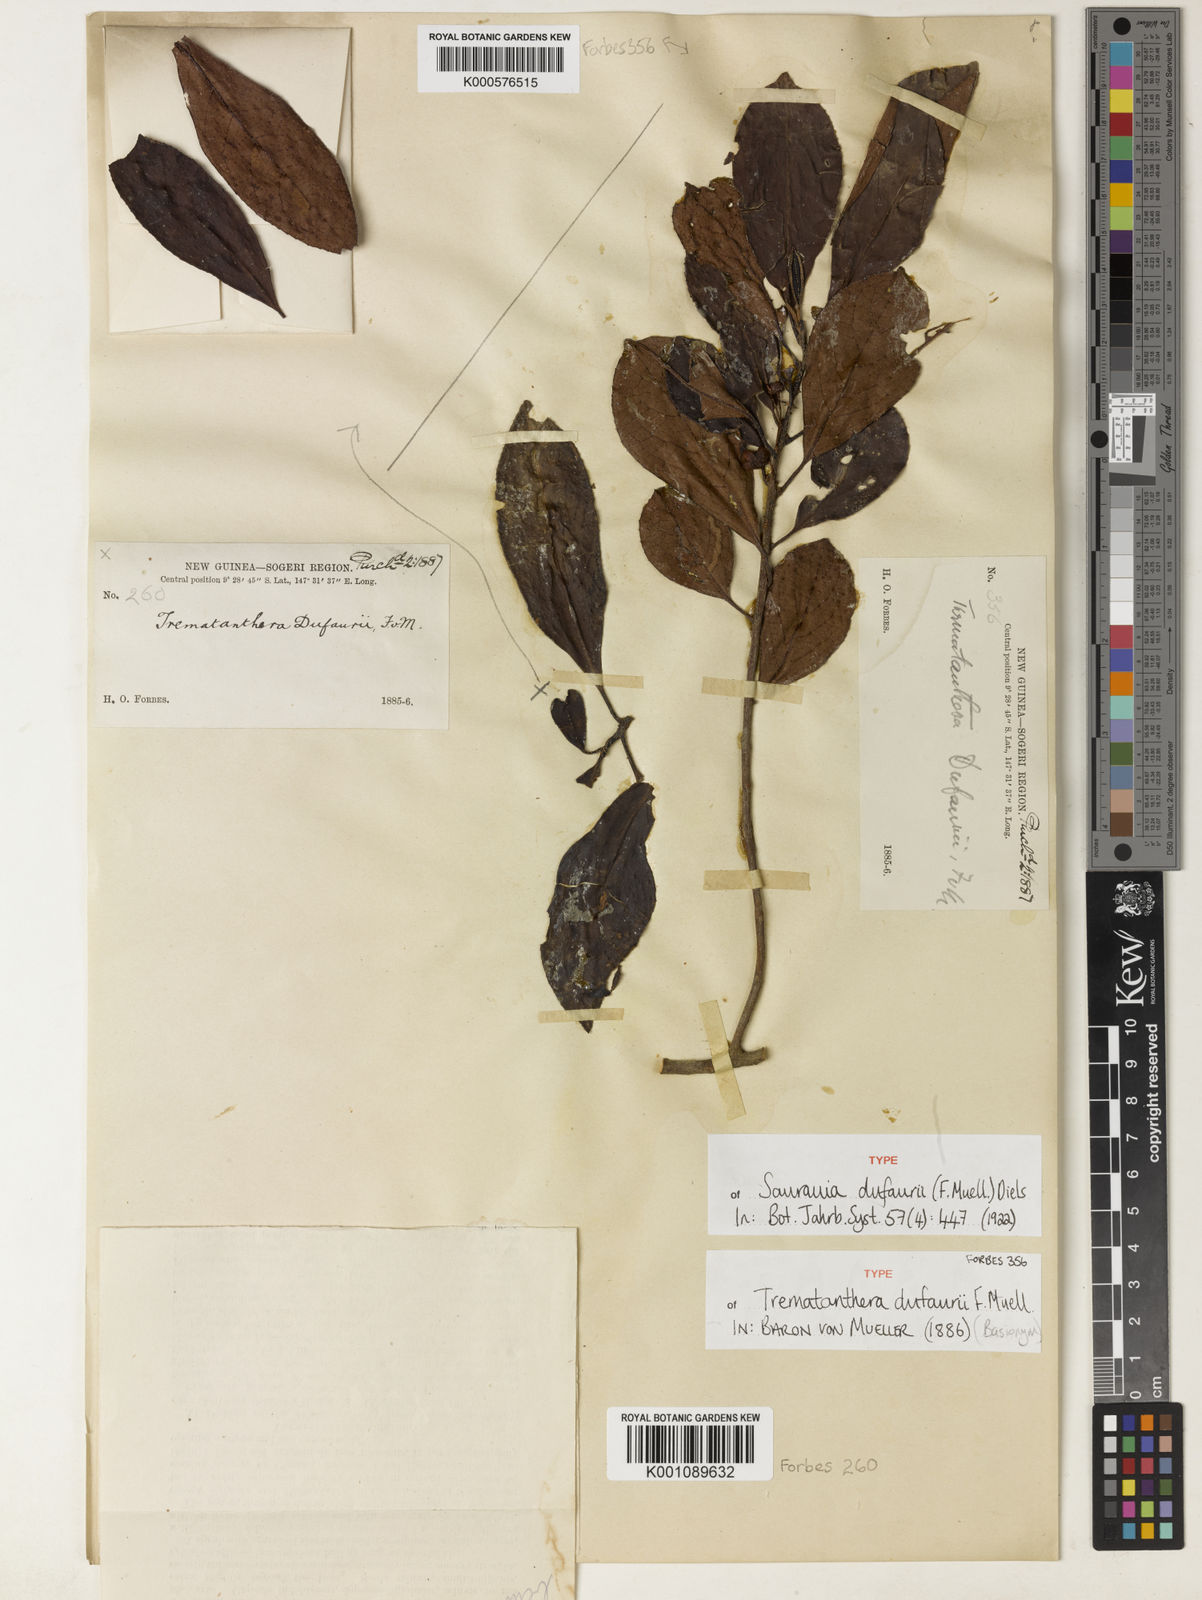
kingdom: Plantae
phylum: Tracheophyta
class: Magnoliopsida
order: Ericales
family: Actinidiaceae
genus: Saurauia
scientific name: Saurauia dufaurii
